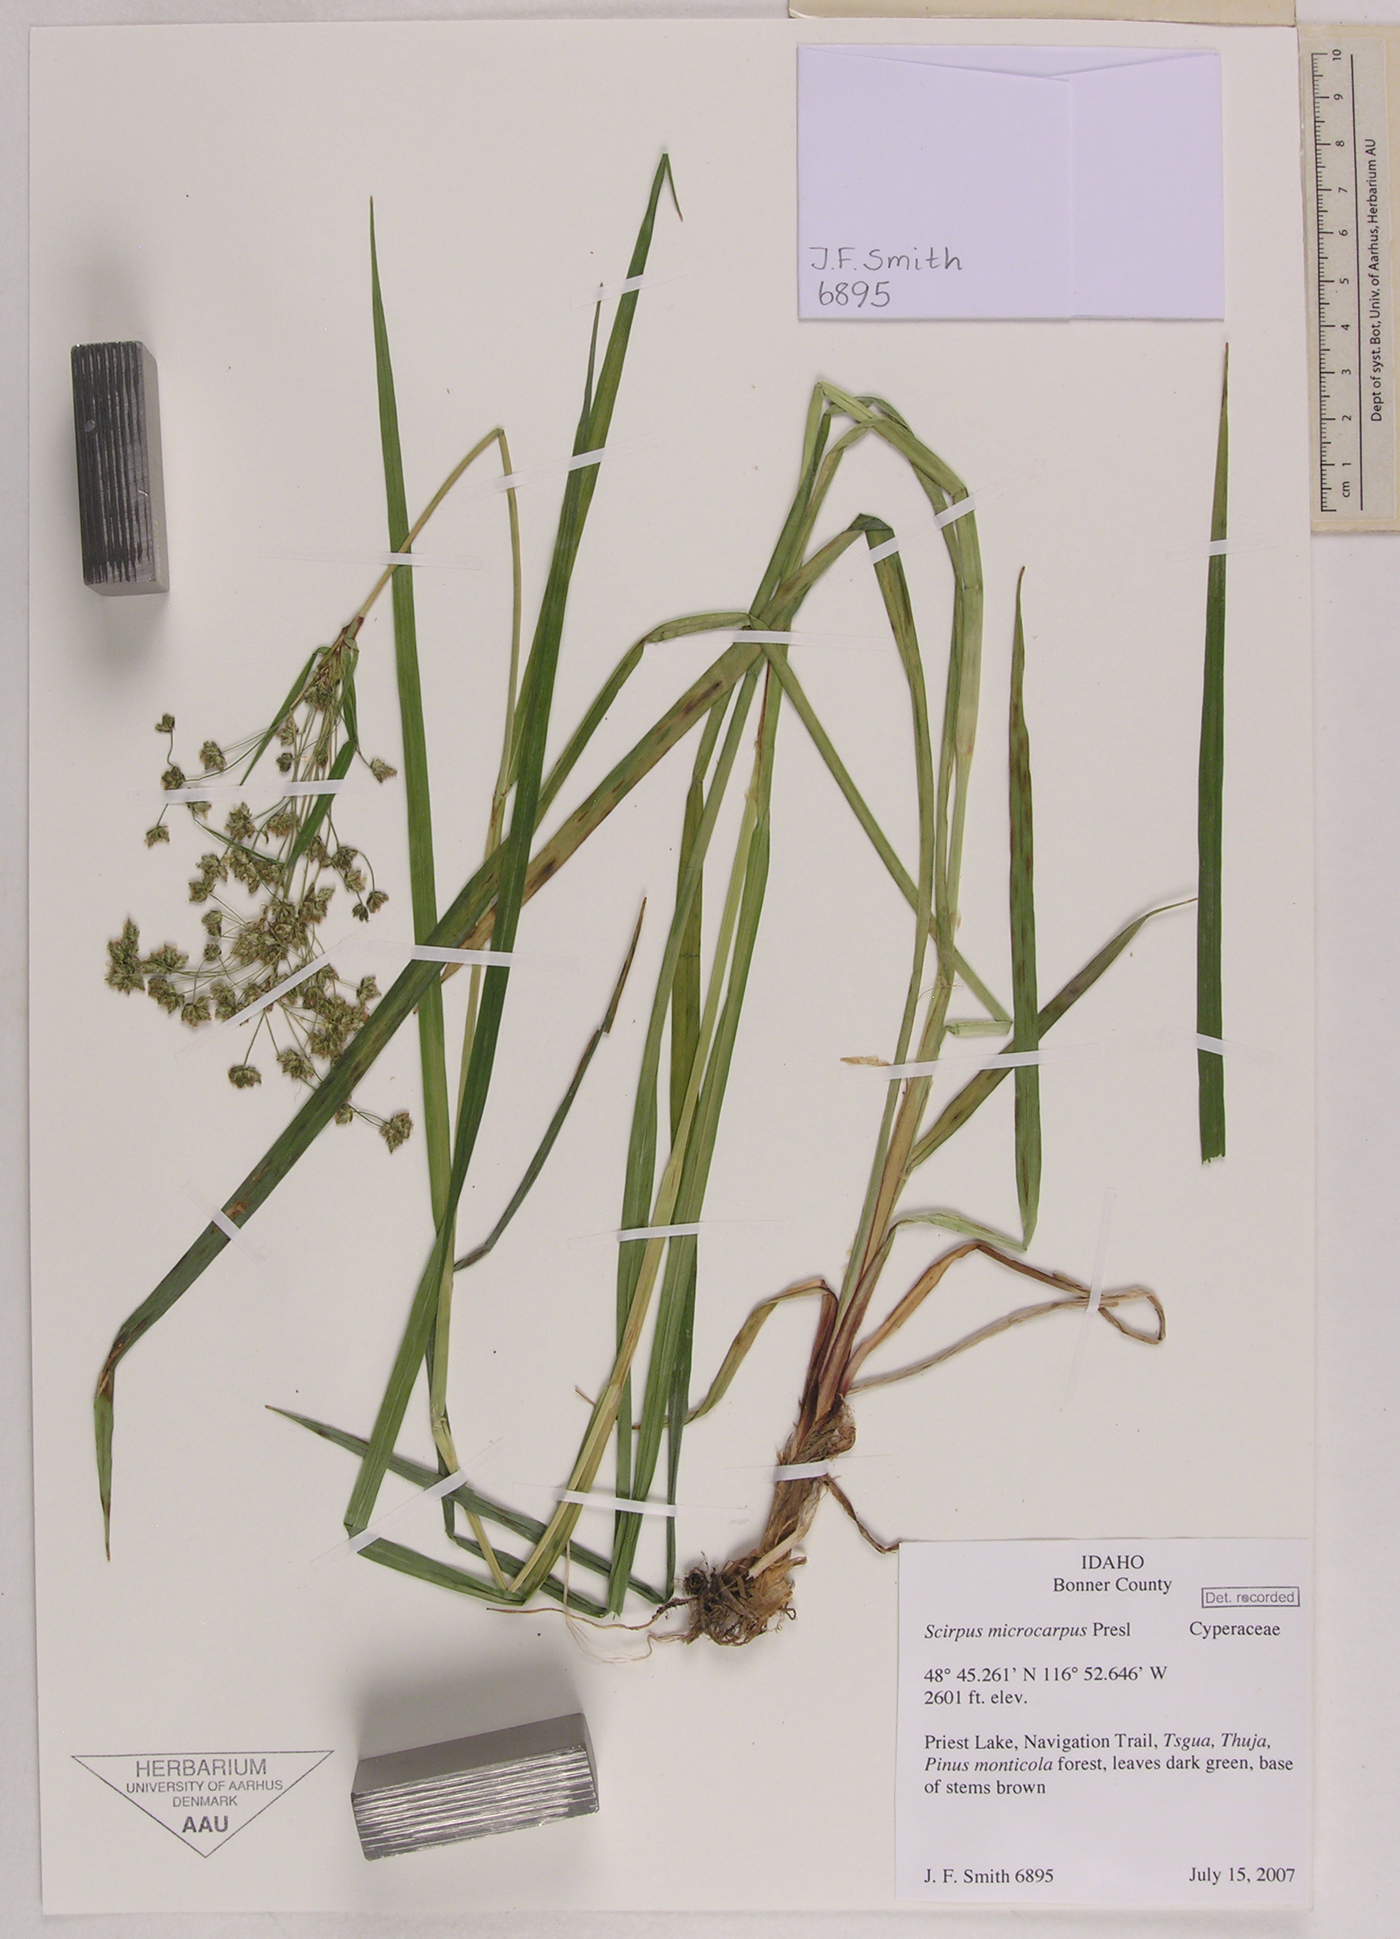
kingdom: Plantae
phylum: Tracheophyta
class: Liliopsida
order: Poales
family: Cyperaceae
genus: Scirpus
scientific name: Scirpus microcarpus
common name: Panicled bulrush
